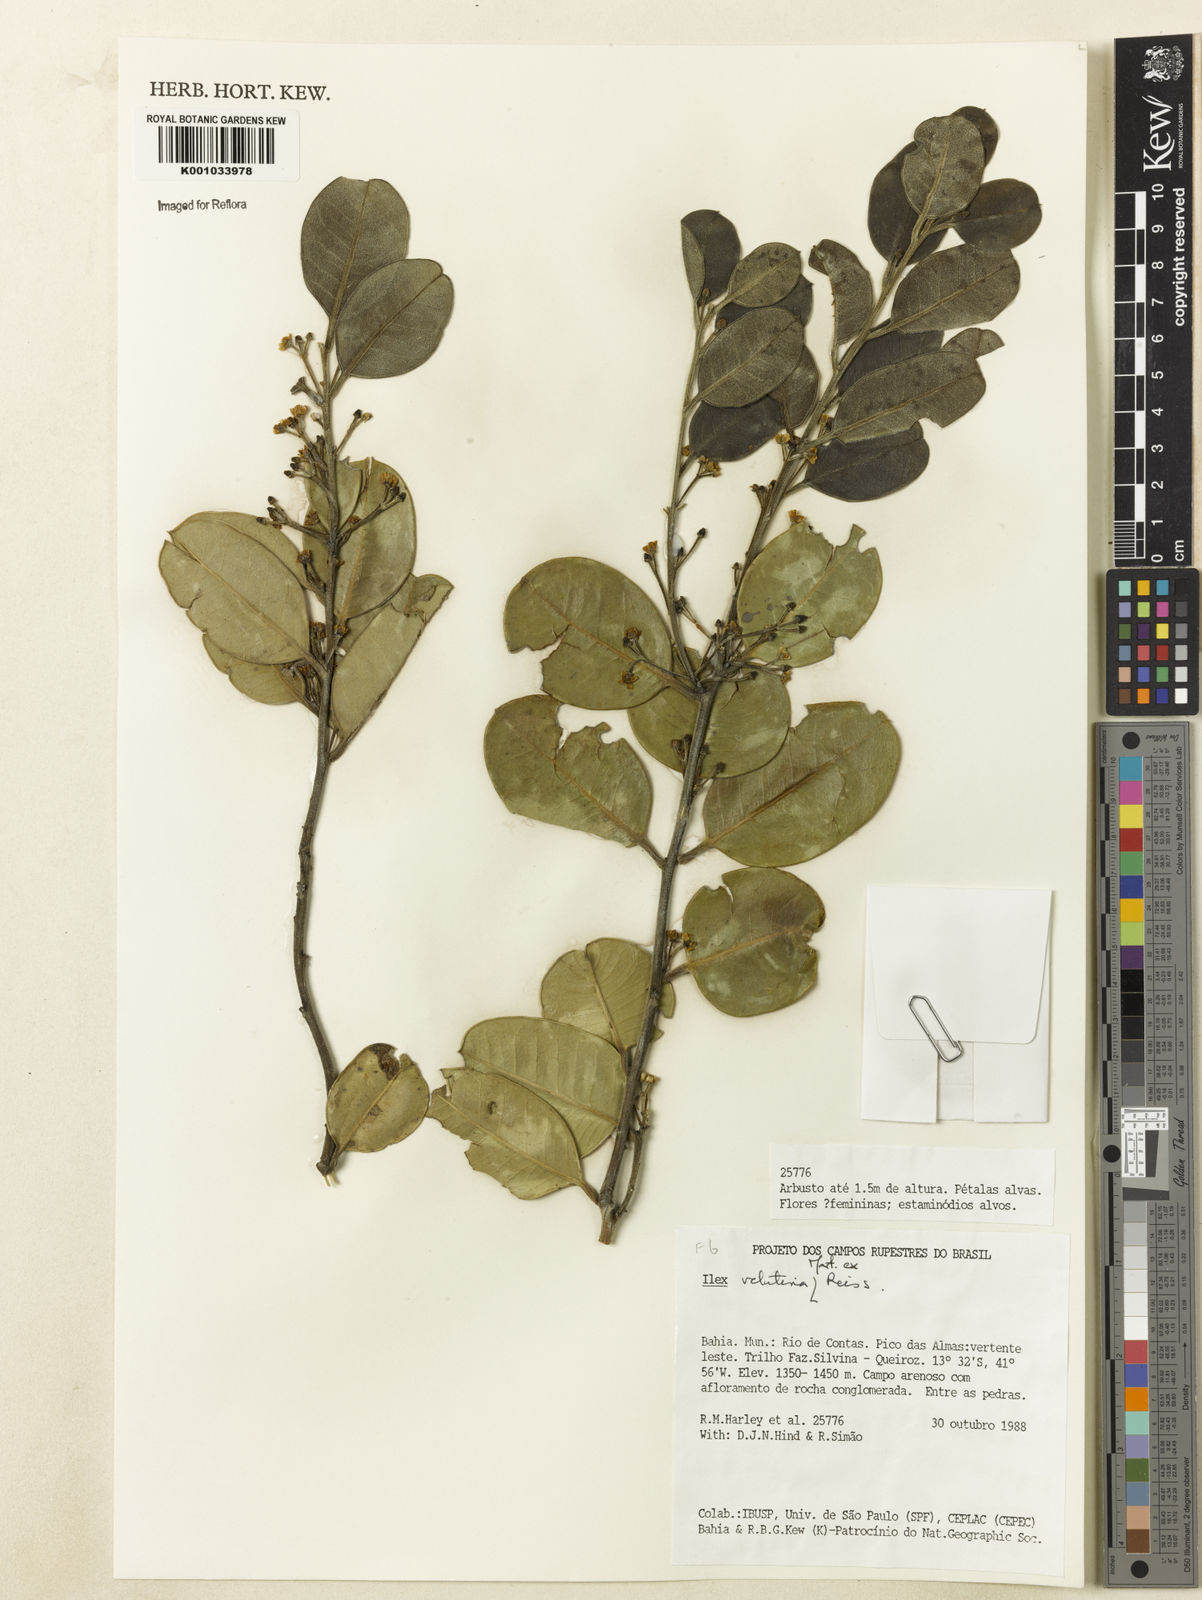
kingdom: Plantae
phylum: Tracheophyta
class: Magnoliopsida
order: Aquifoliales
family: Aquifoliaceae
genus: Ilex
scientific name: Ilex velutina
